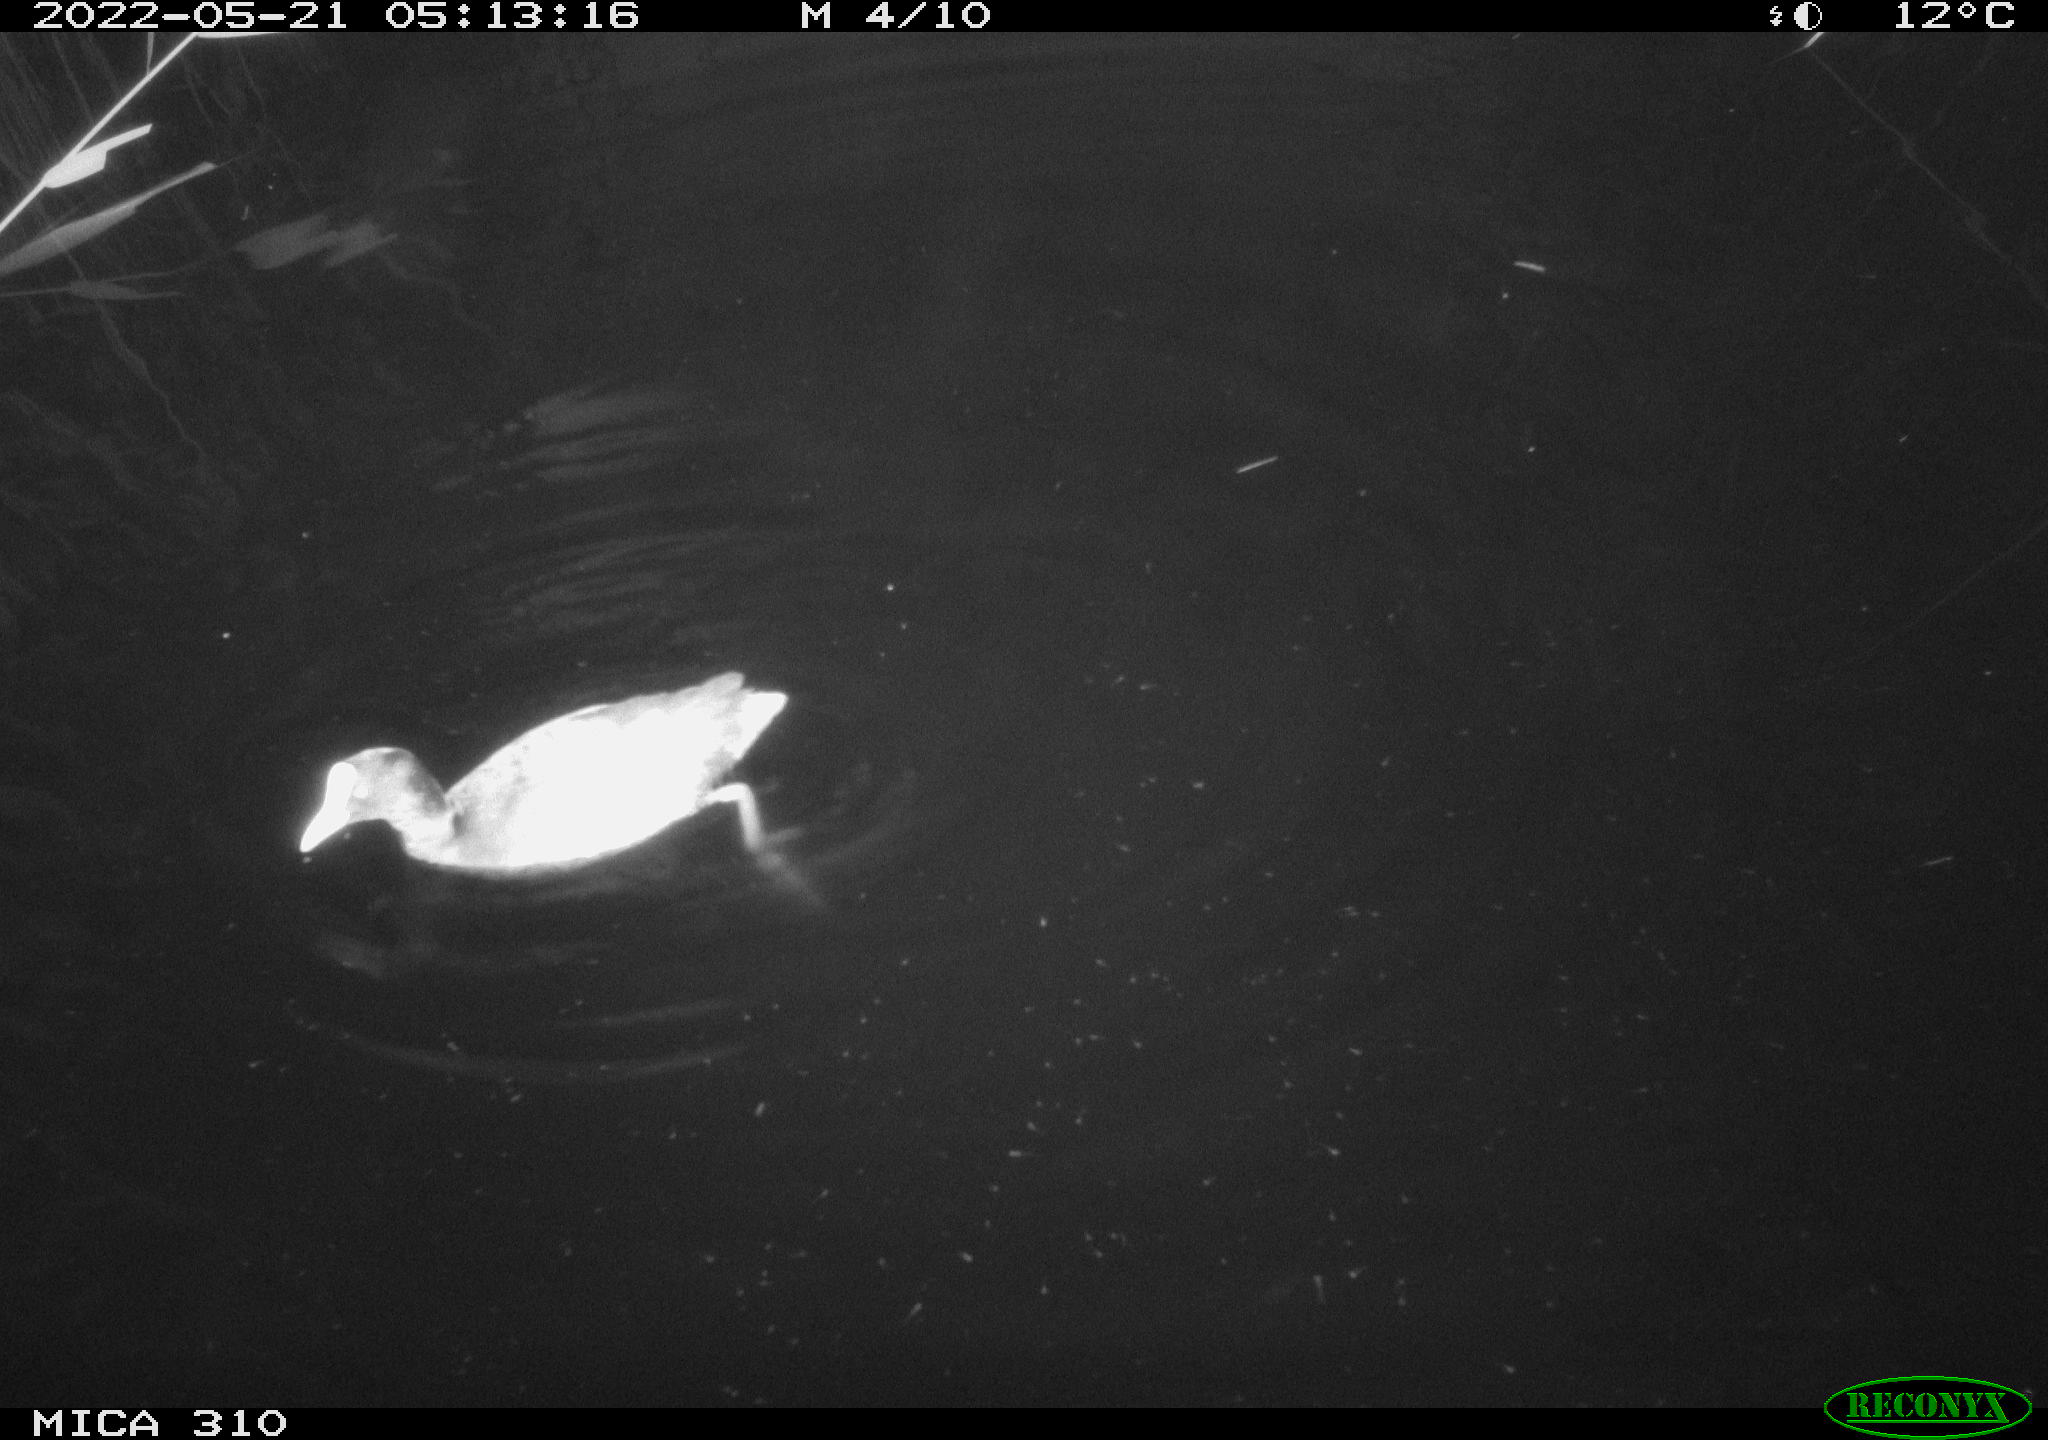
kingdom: Animalia
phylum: Chordata
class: Aves
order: Gruiformes
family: Rallidae
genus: Gallinula
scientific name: Gallinula chloropus
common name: Common moorhen
